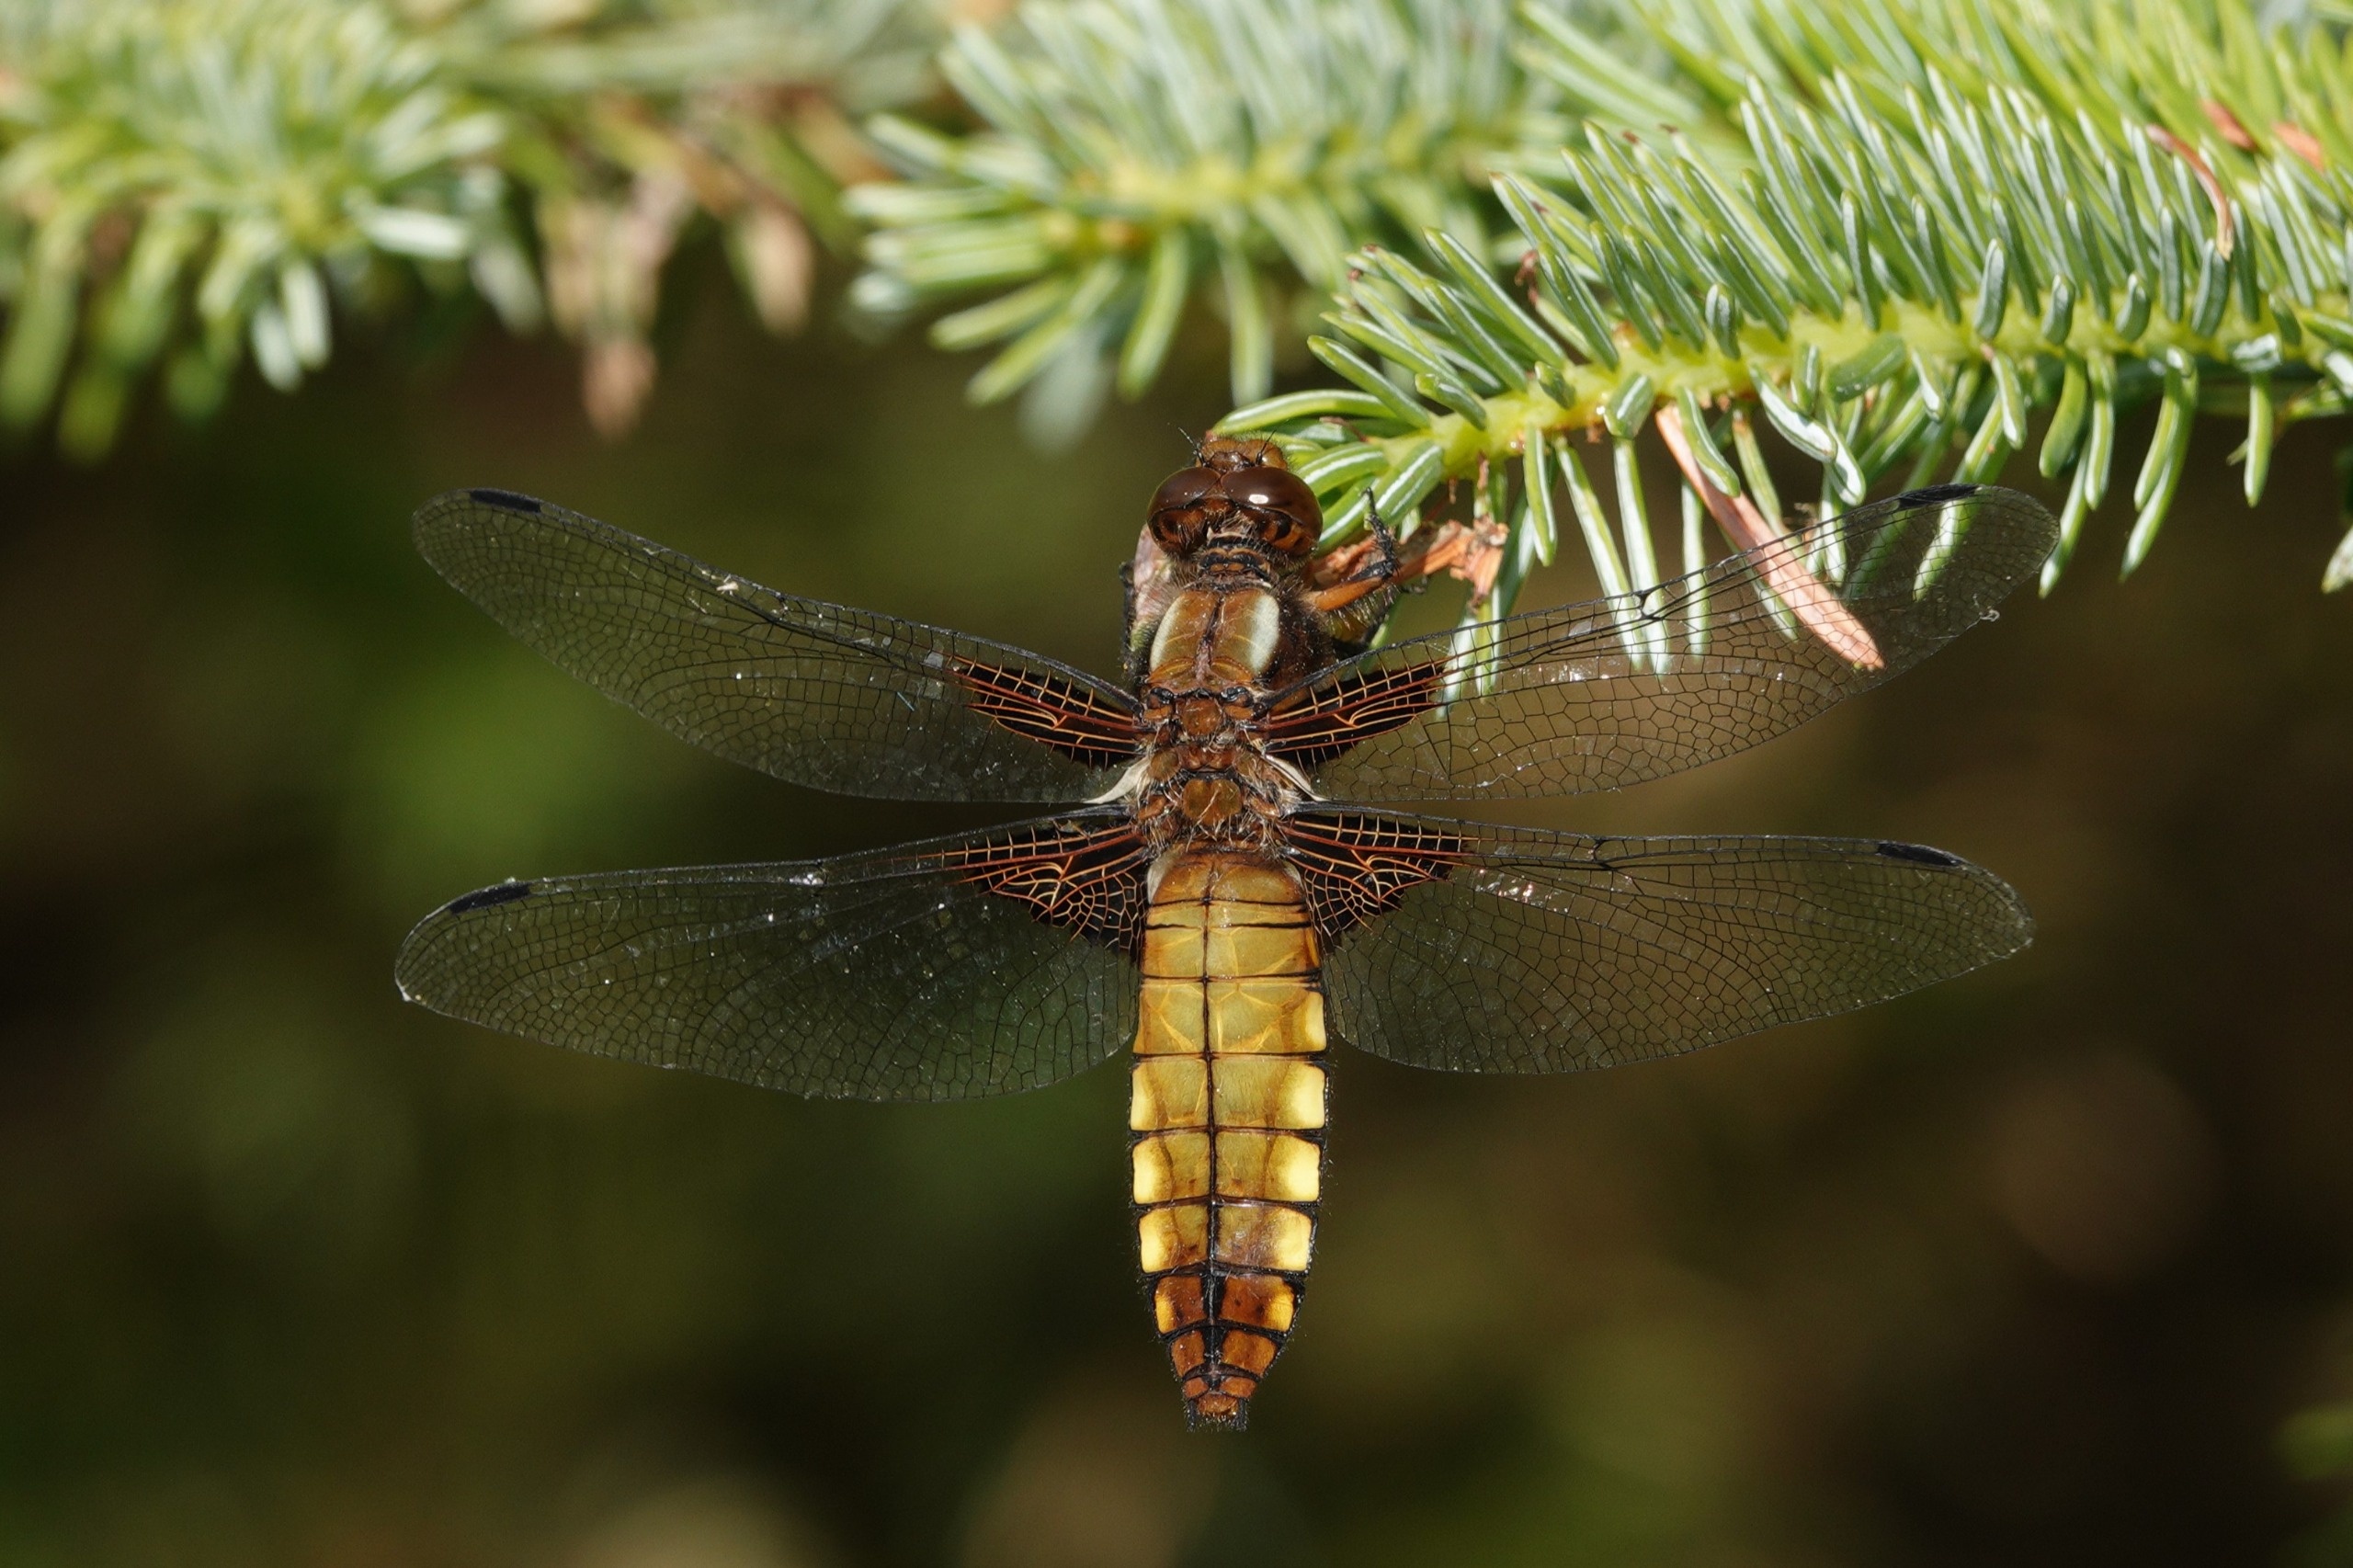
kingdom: Animalia
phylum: Arthropoda
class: Insecta
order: Odonata
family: Libellulidae
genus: Libellula
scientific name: Libellula depressa
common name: Blå libel
